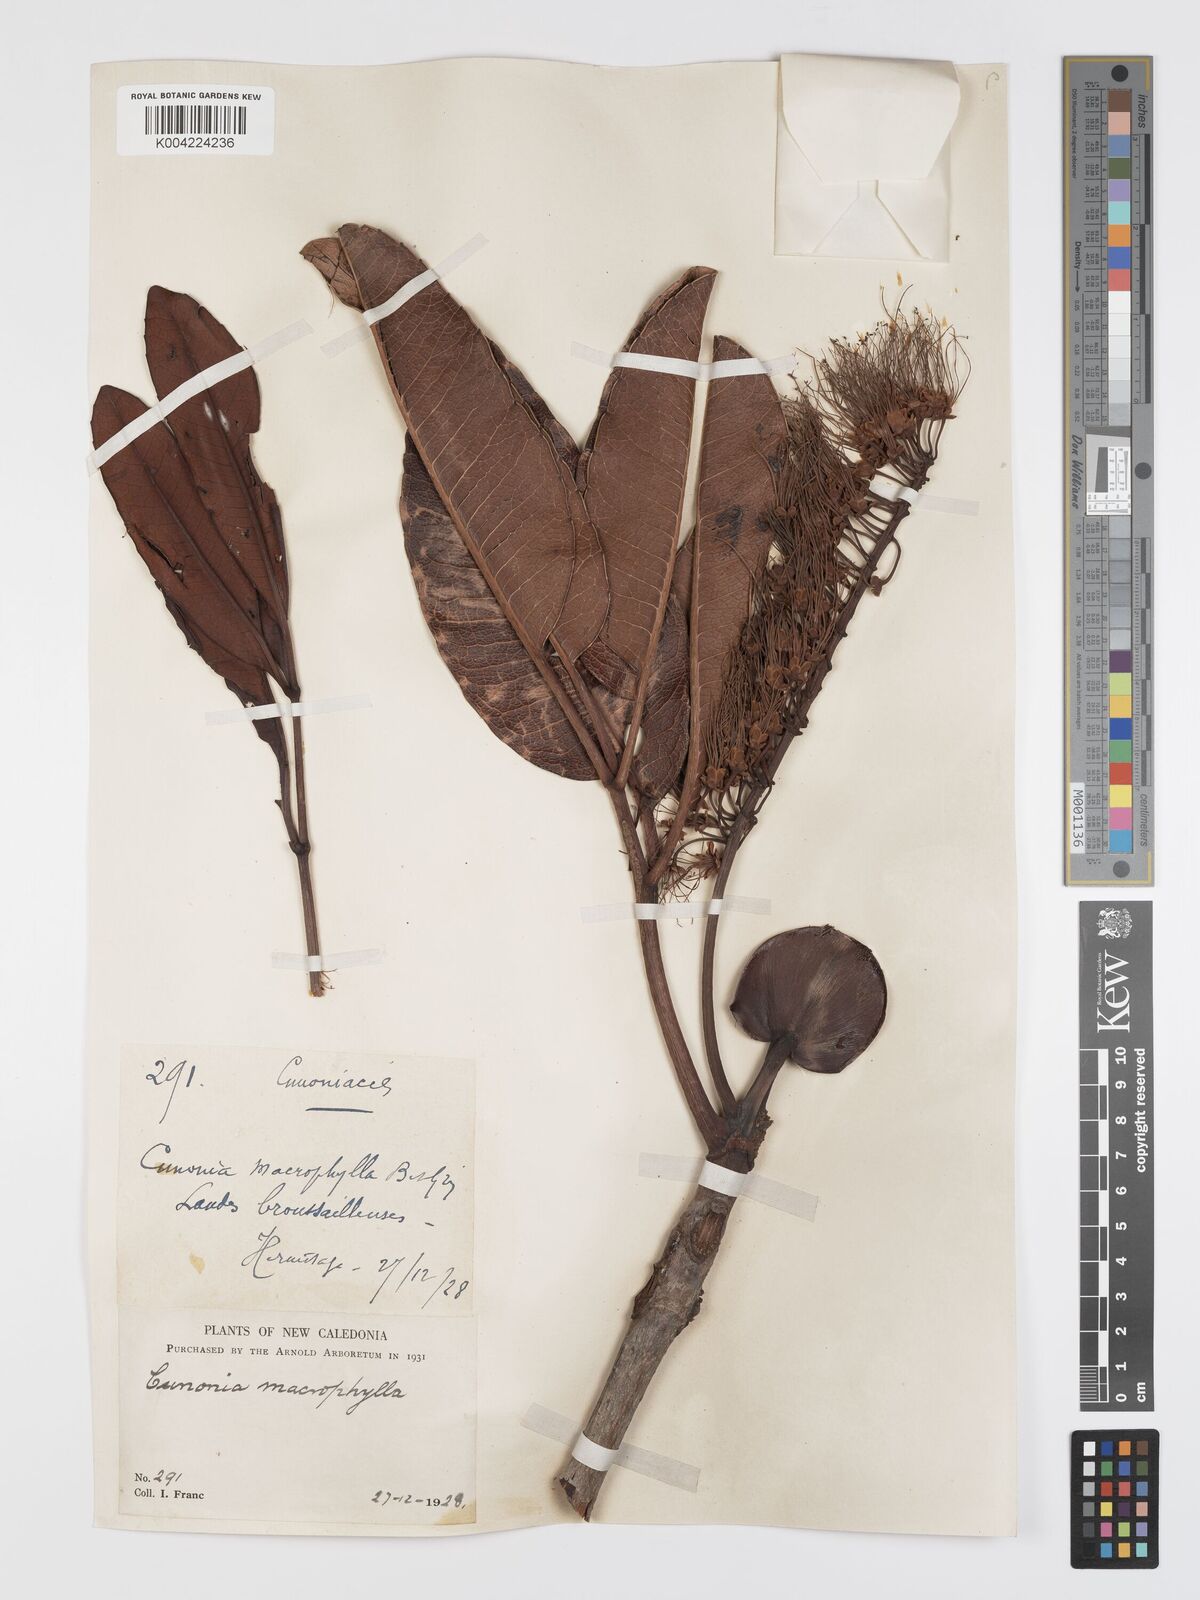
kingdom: Plantae
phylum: Tracheophyta
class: Magnoliopsida
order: Oxalidales
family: Cunoniaceae
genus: Cunonia
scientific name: Cunonia macrophylla
